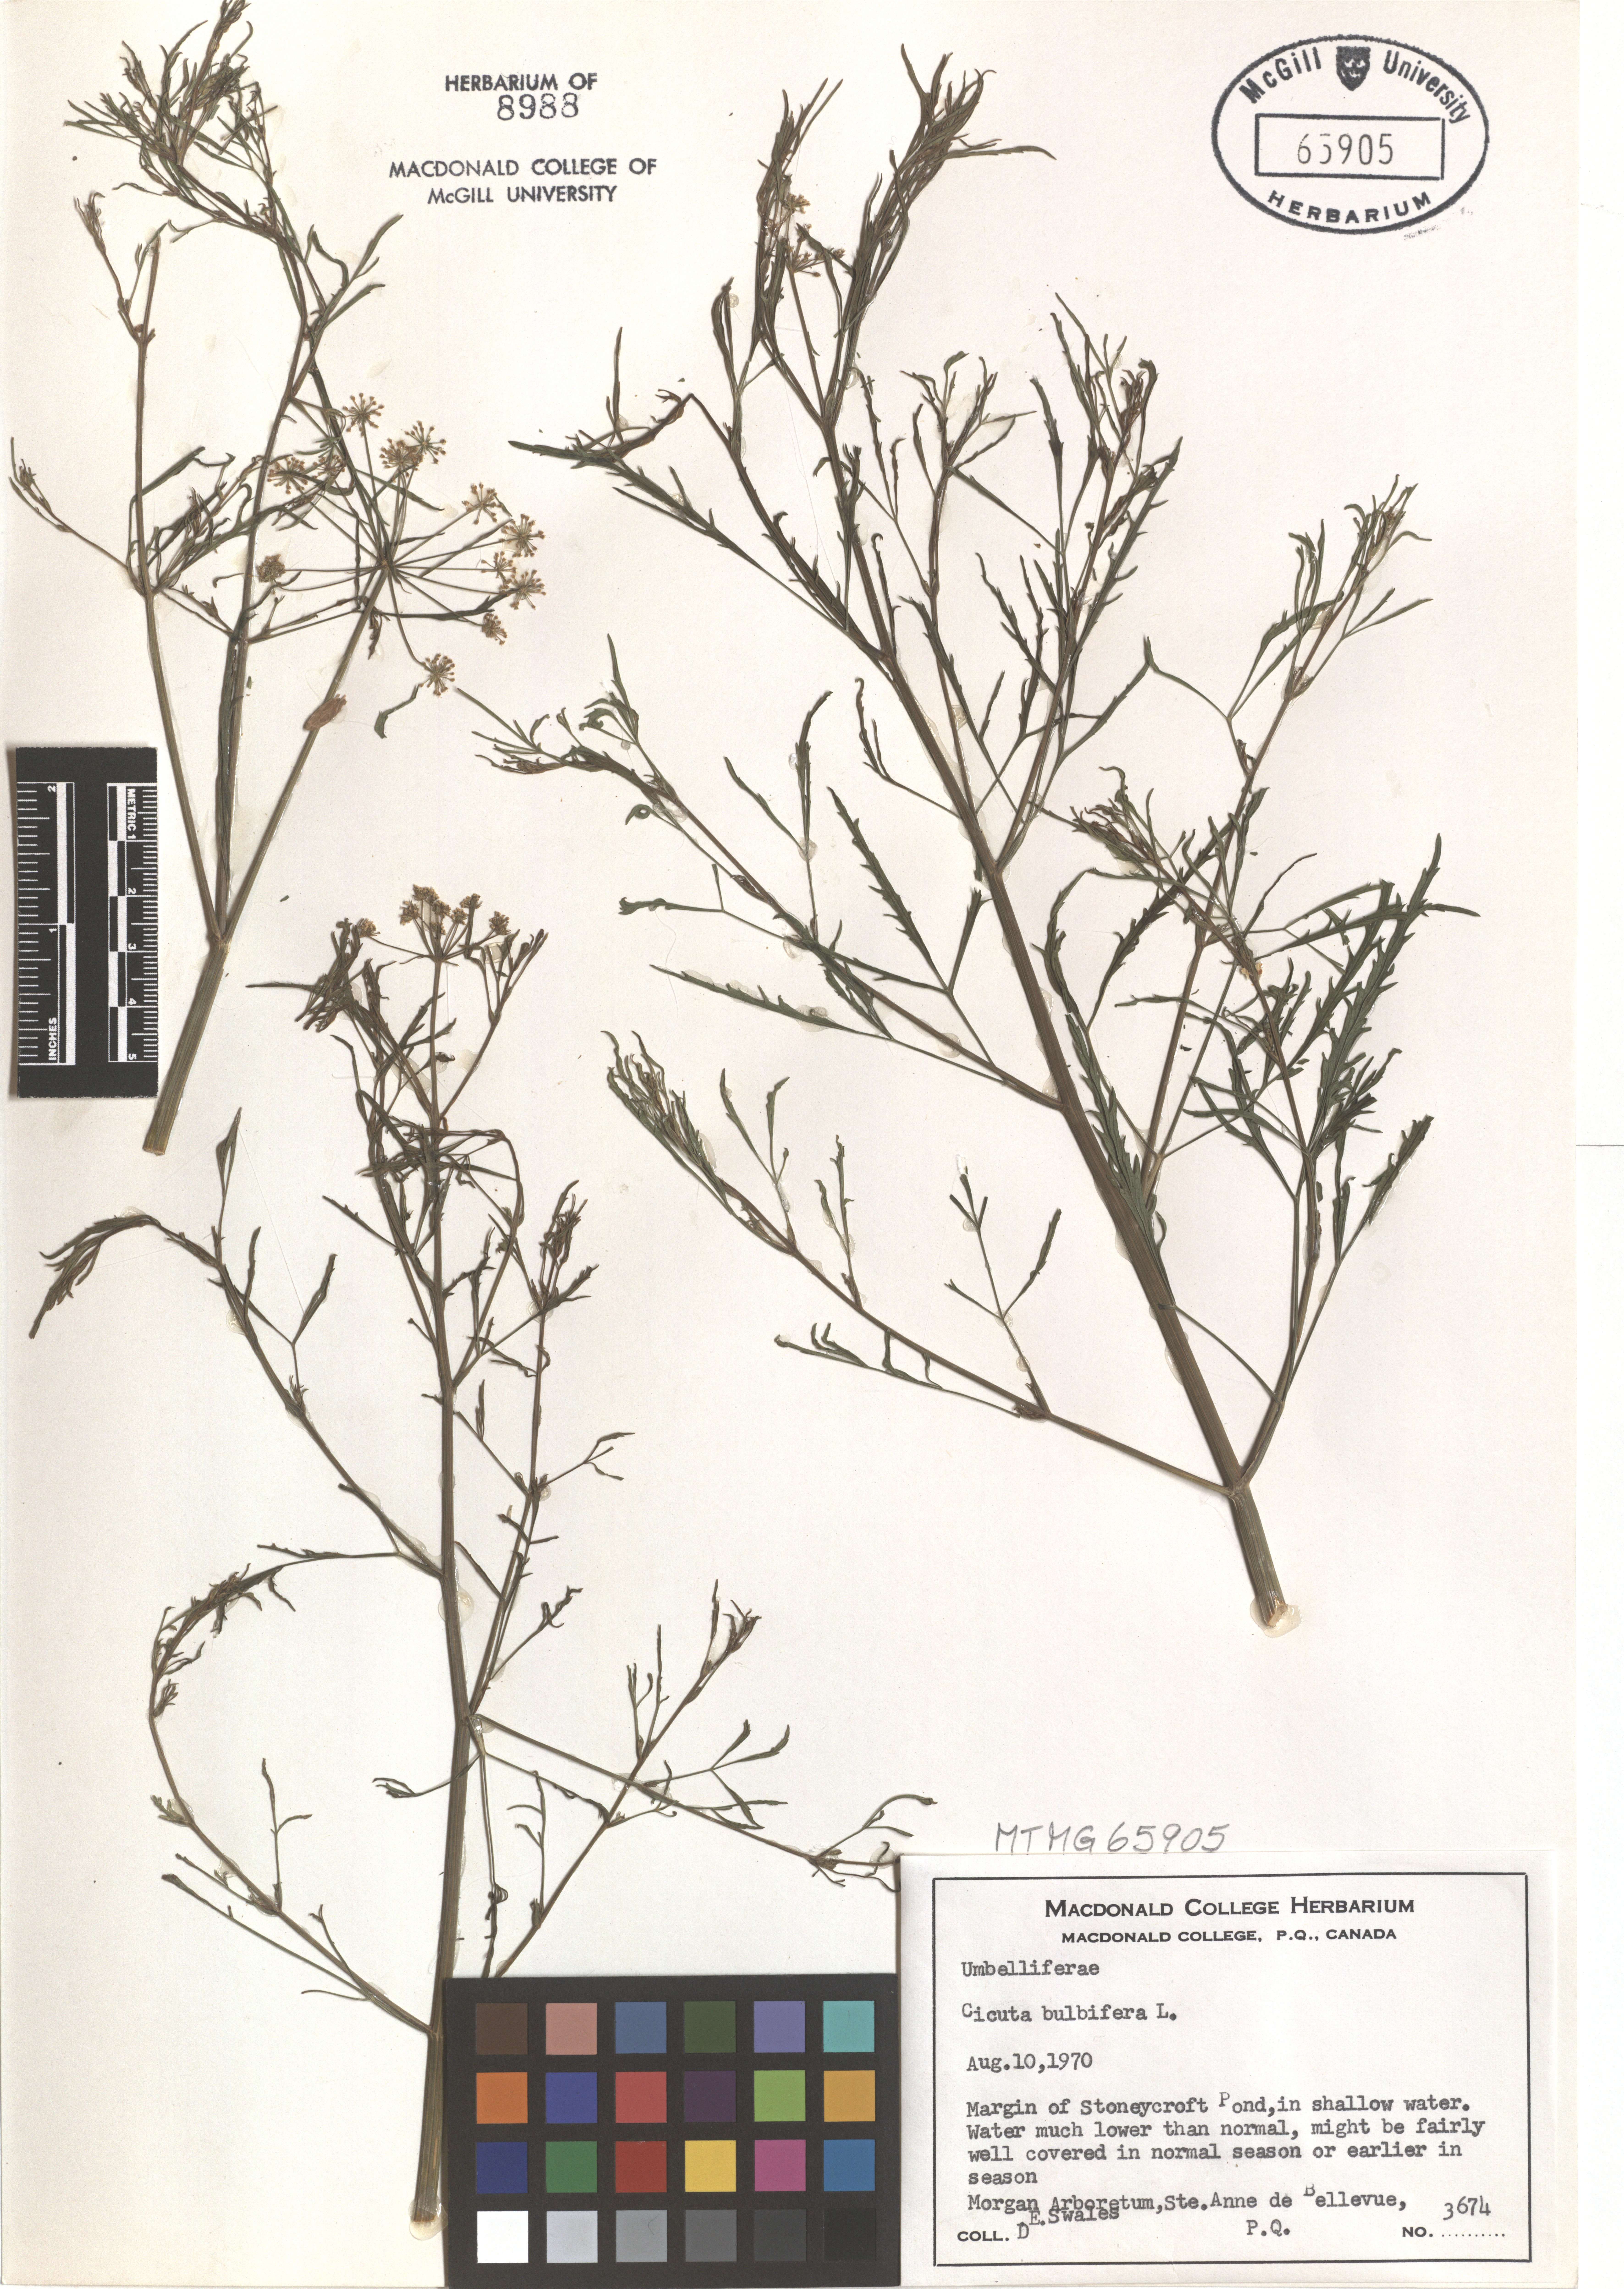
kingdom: Plantae
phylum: Tracheophyta
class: Magnoliopsida
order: Apiales
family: Apiaceae
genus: Cicuta
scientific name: Cicuta bulbifera
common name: Bulb-bearing water-hemlock
